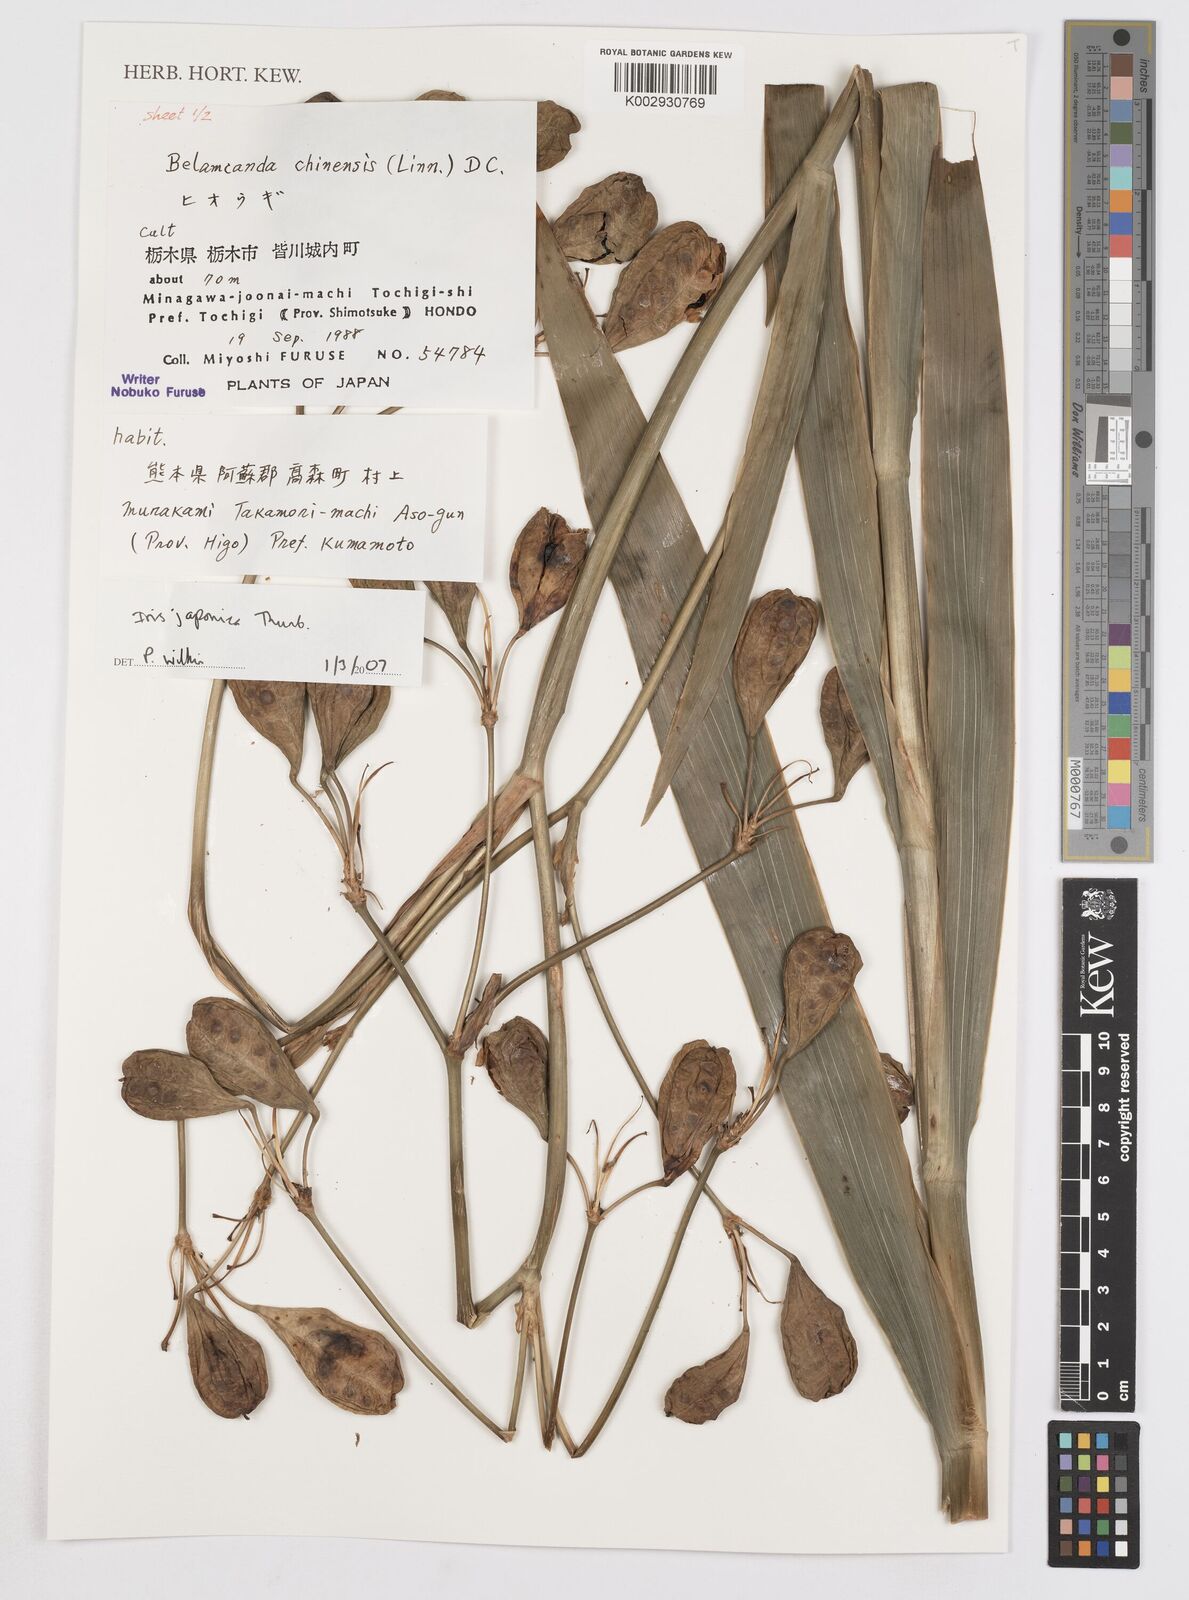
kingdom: Plantae
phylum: Tracheophyta
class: Liliopsida
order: Asparagales
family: Iridaceae
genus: Iris
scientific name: Iris japonica
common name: Butterfly-flower
